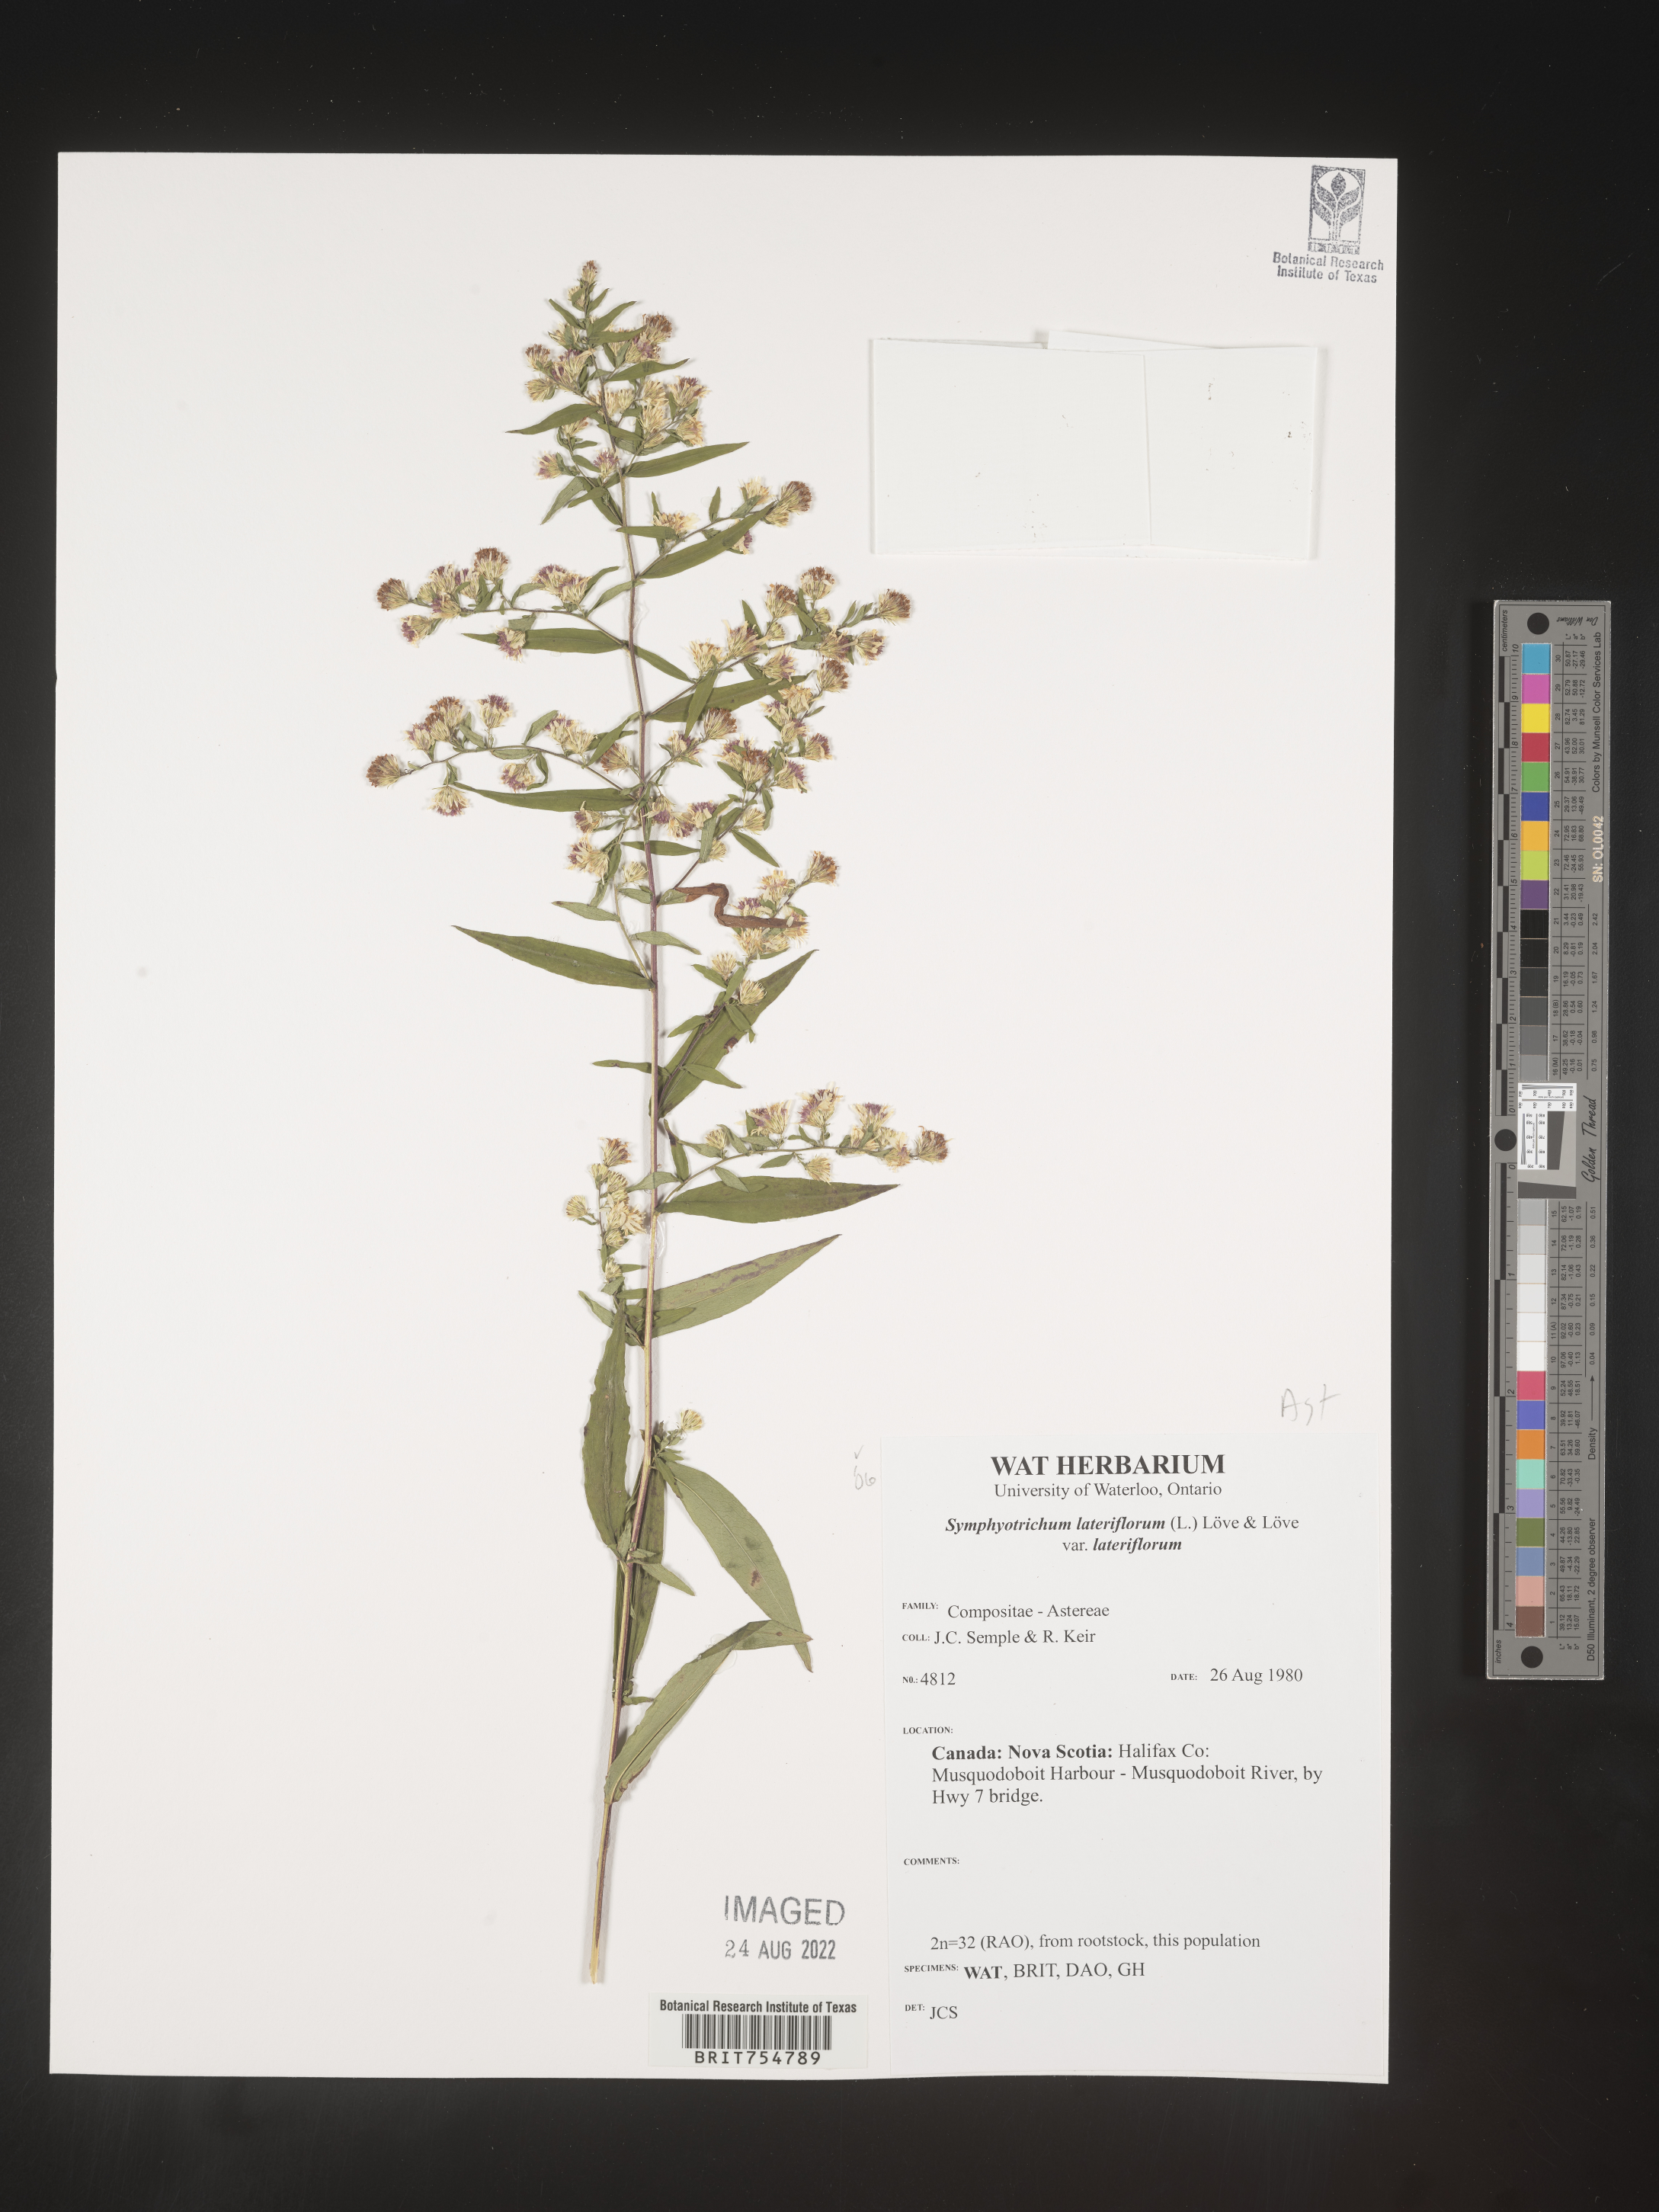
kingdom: Plantae
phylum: Tracheophyta
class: Magnoliopsida
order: Asterales
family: Asteraceae
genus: Symphyotrichum
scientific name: Symphyotrichum
